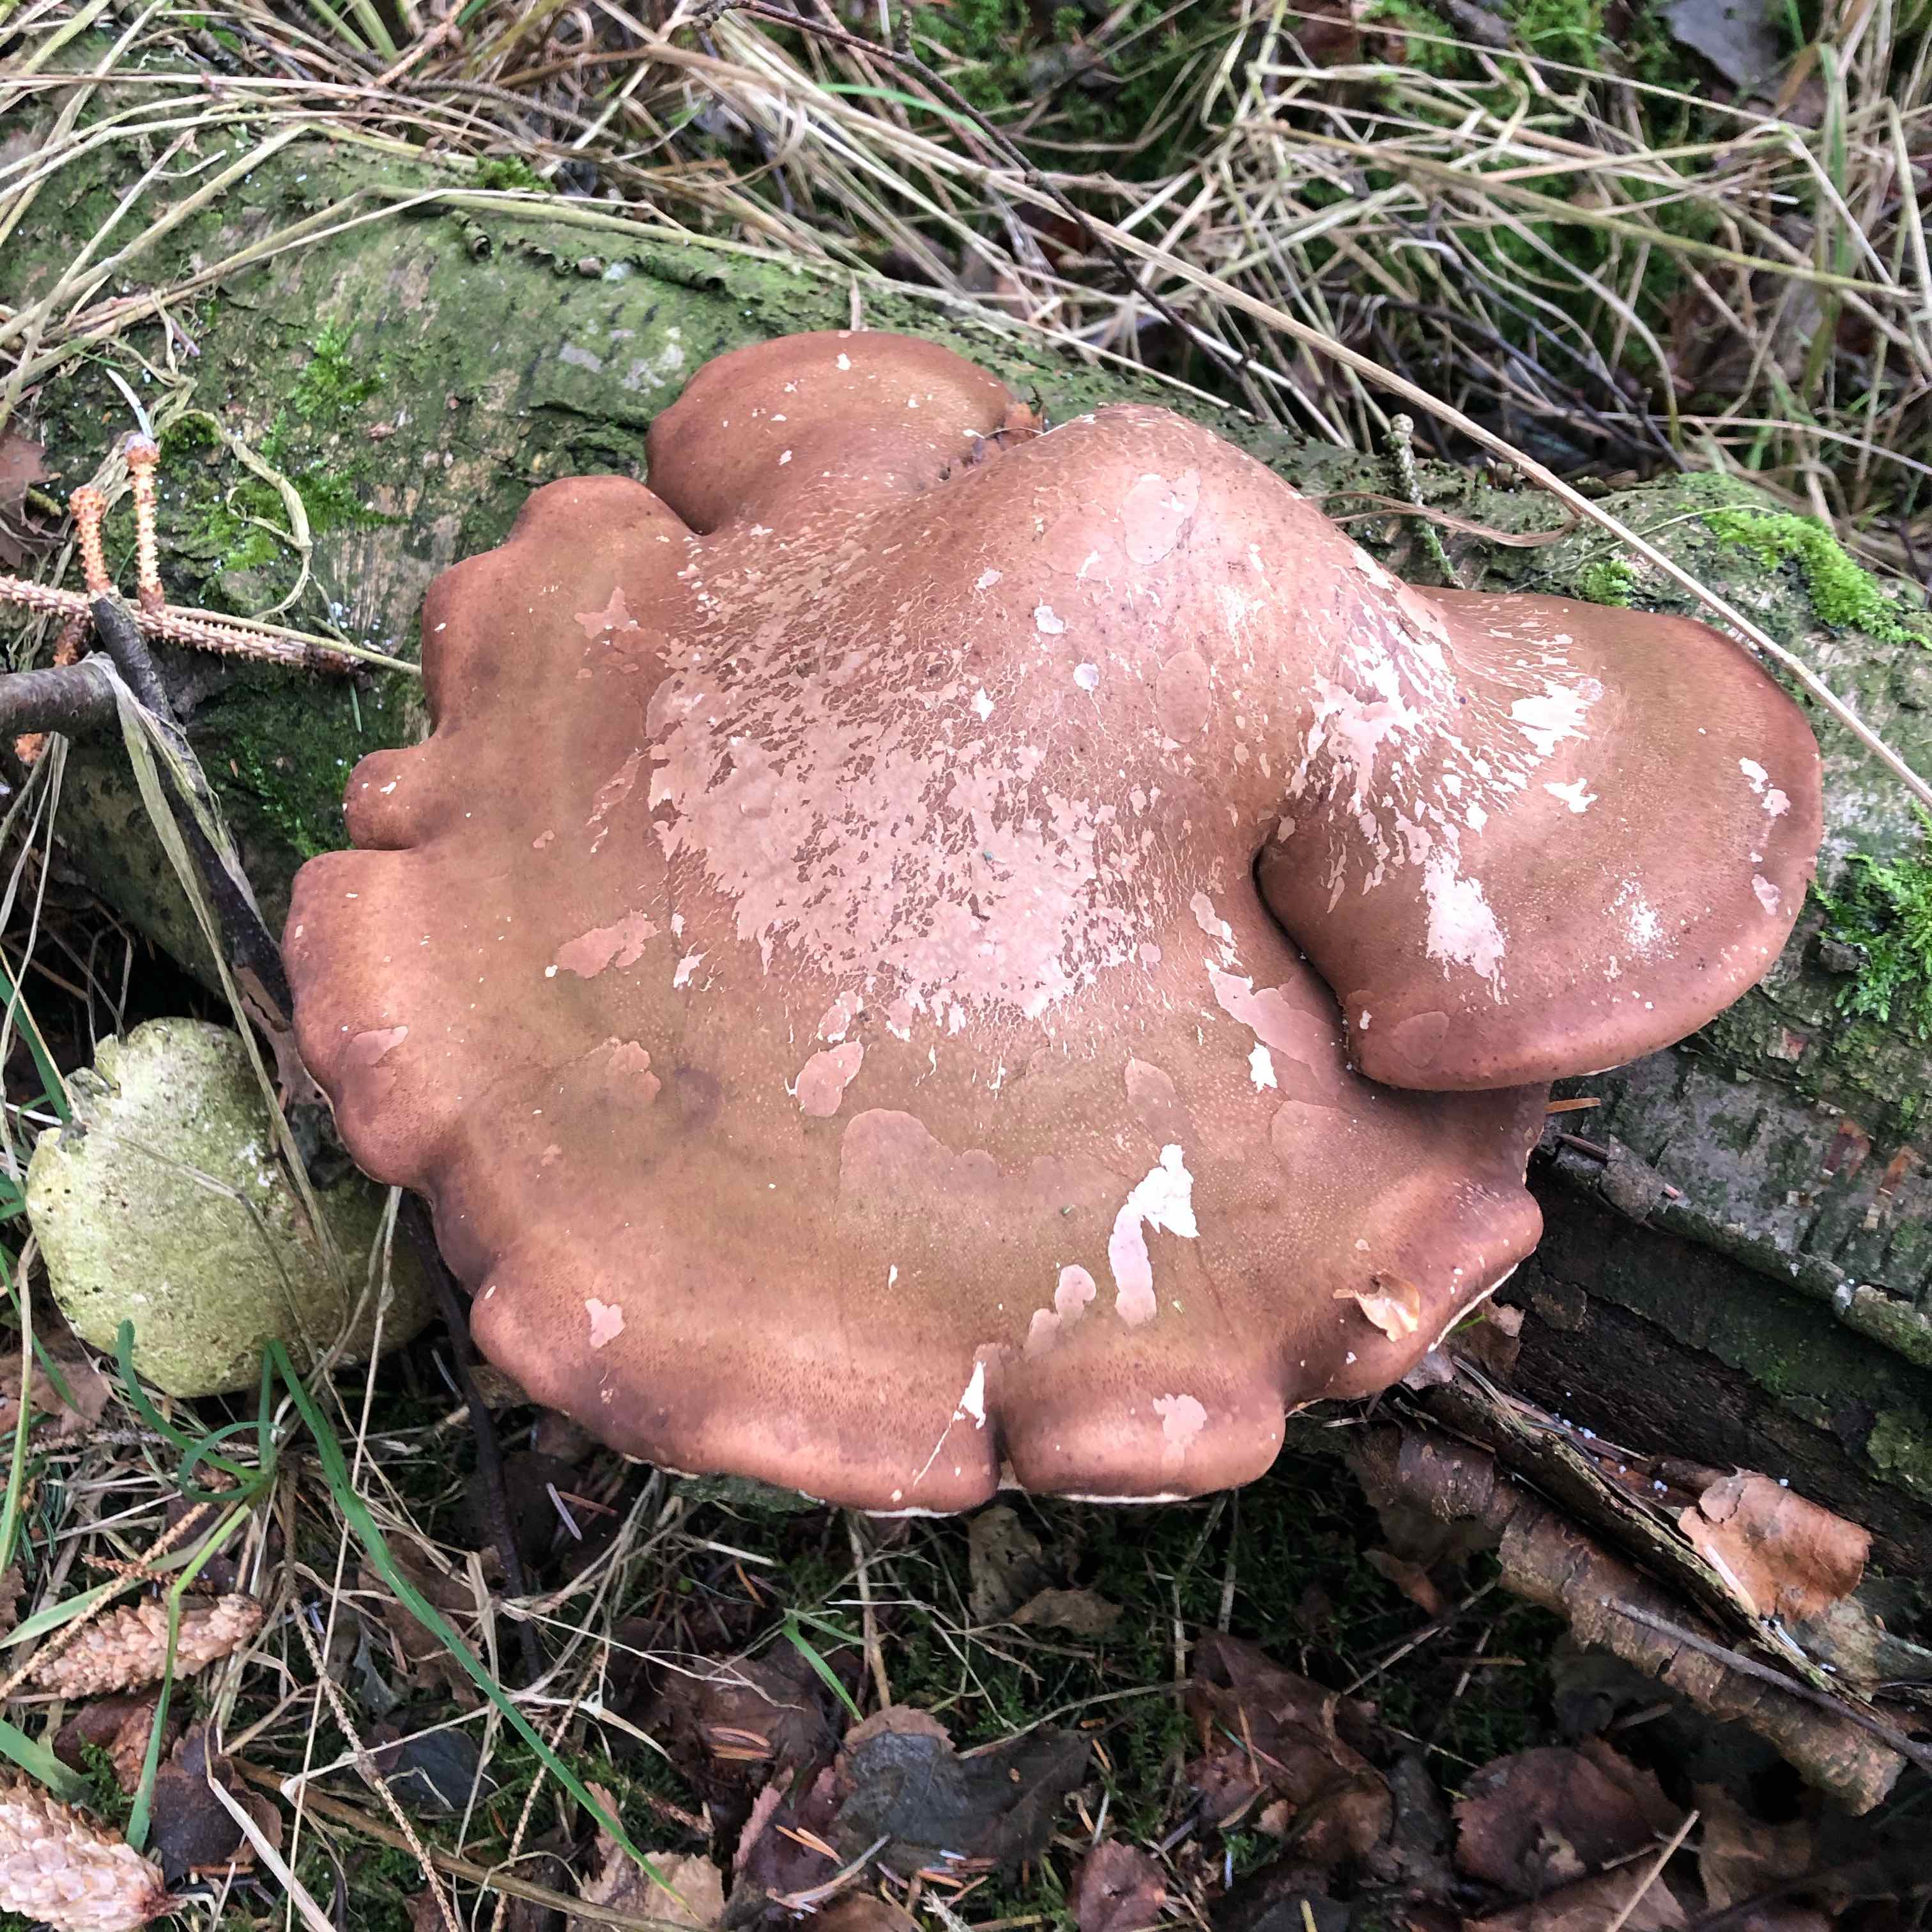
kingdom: Fungi
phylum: Basidiomycota
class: Agaricomycetes
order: Polyporales
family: Fomitopsidaceae
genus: Fomitopsis
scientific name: Fomitopsis betulina
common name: birkeporesvamp
